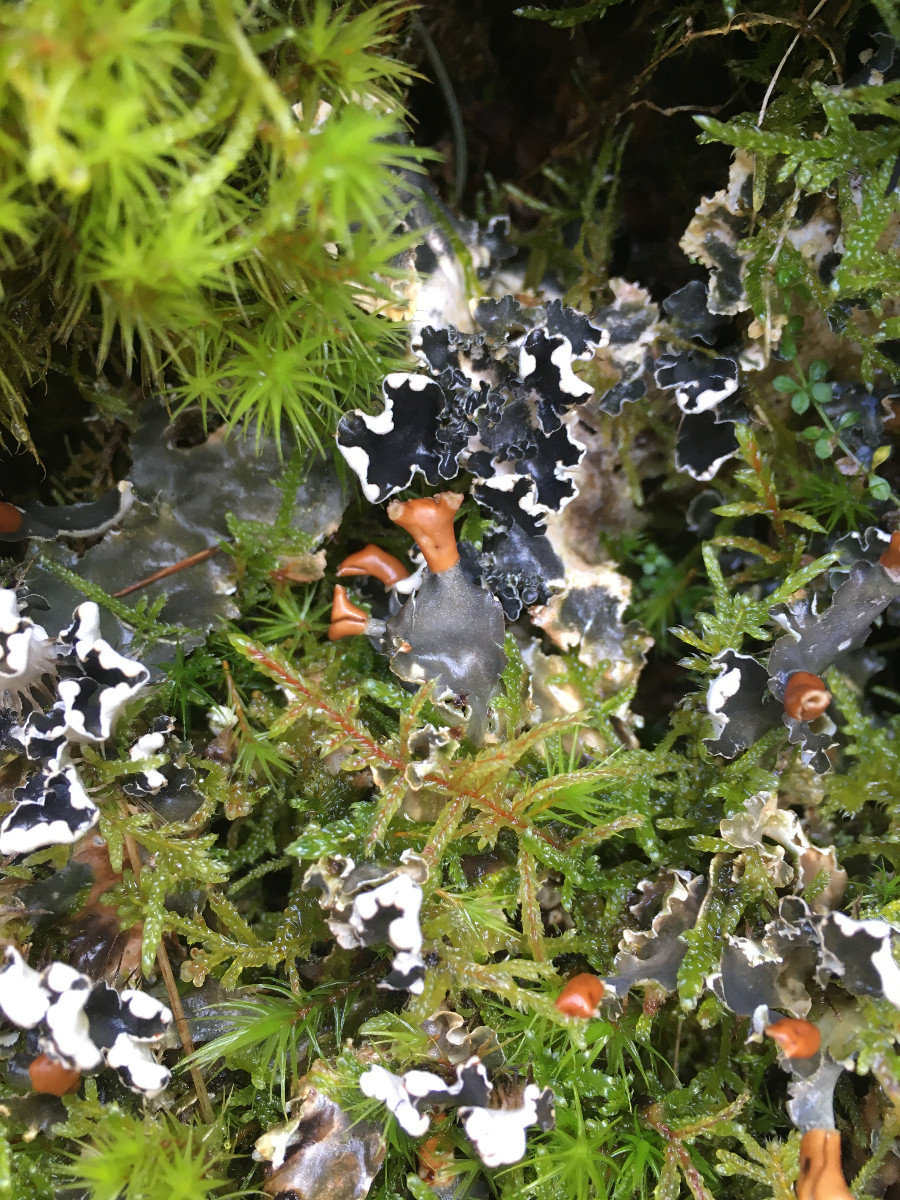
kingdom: Fungi
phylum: Ascomycota
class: Lecanoromycetes
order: Peltigerales
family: Peltigeraceae
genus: Peltigera
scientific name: Peltigera hymenina
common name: hinde-skjoldlav
